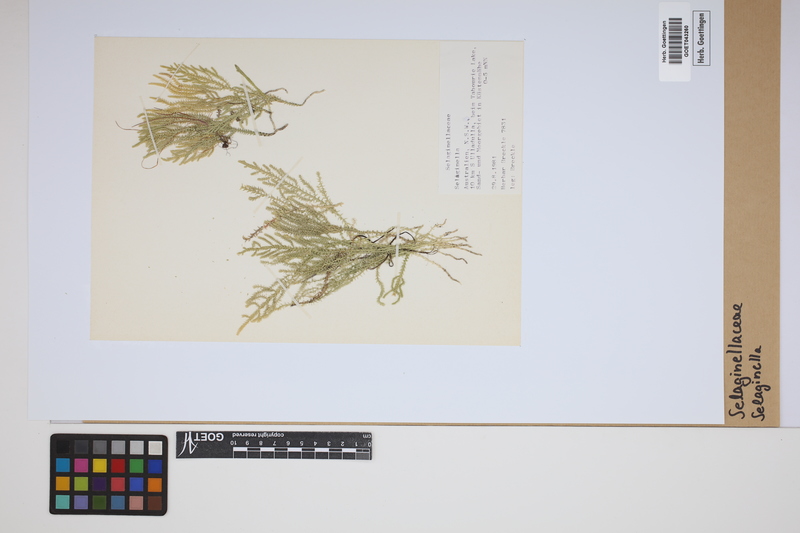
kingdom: Plantae
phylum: Tracheophyta
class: Lycopodiopsida
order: Selaginellales
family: Selaginellaceae
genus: Selaginella
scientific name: Selaginella
